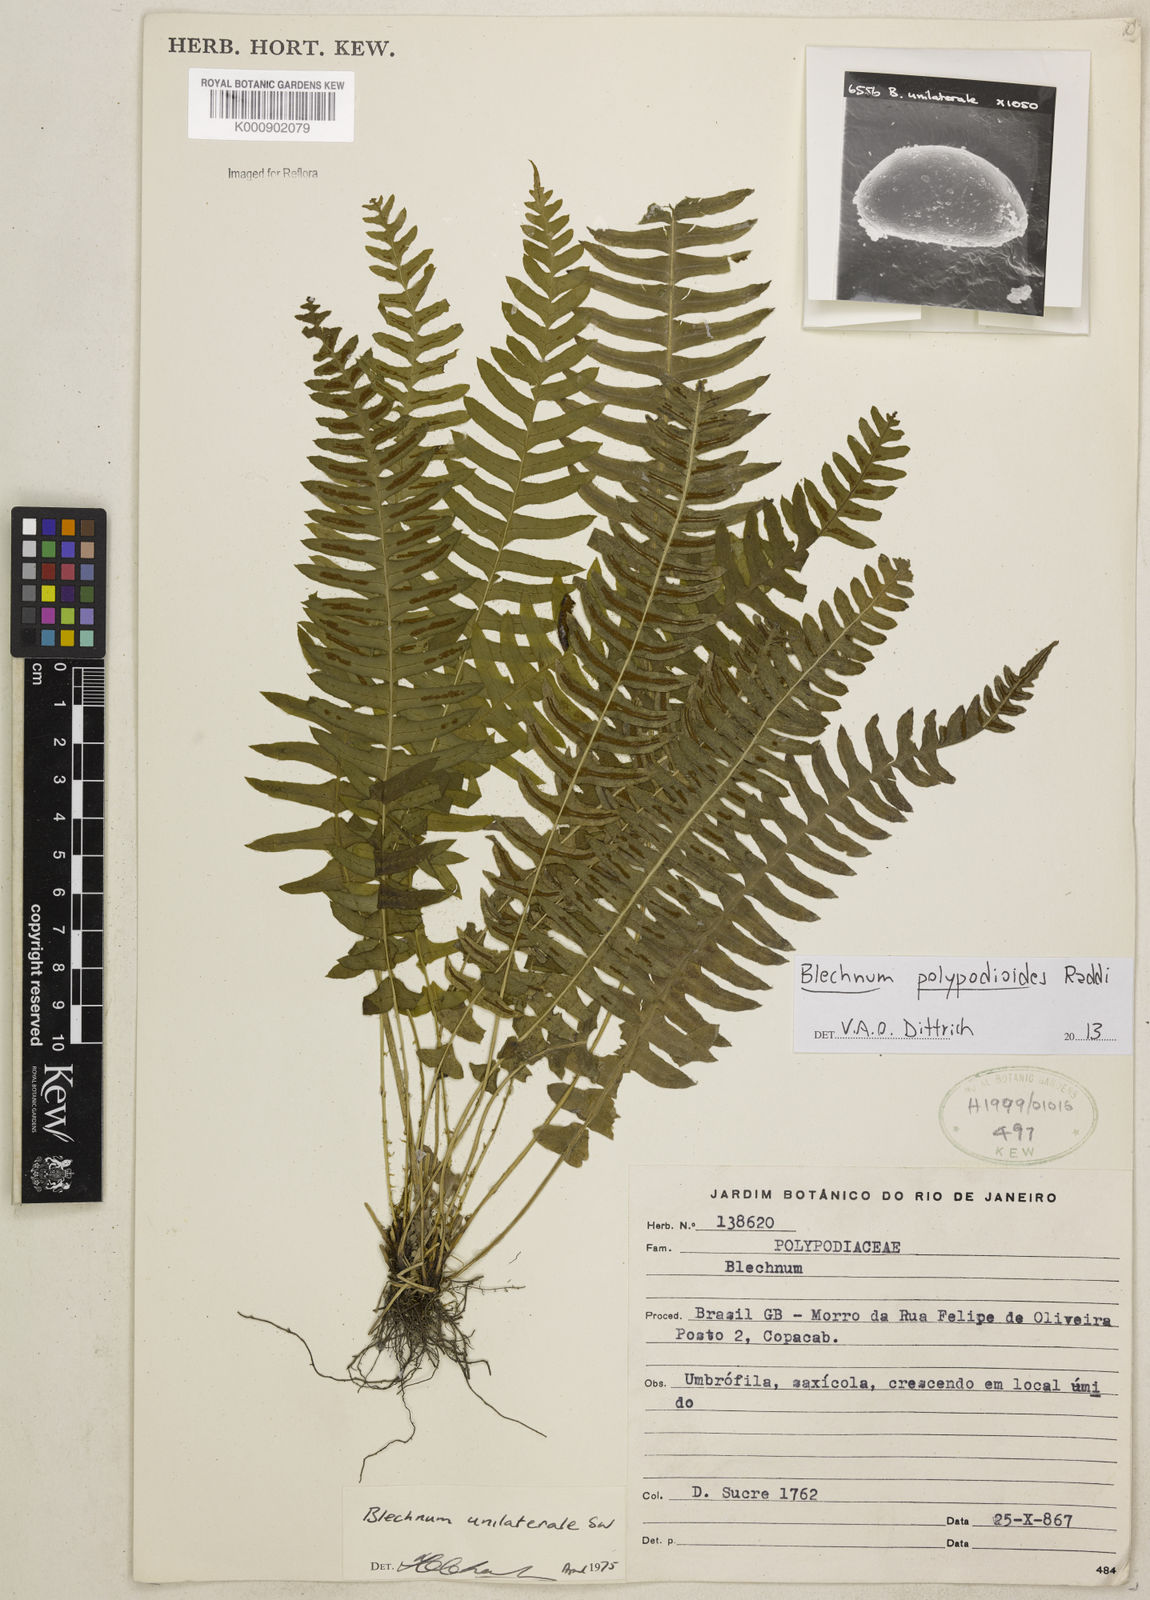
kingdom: Plantae
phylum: Tracheophyta
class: Polypodiopsida
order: Polypodiales
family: Blechnaceae
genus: Blechnum
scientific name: Blechnum polypodioides
